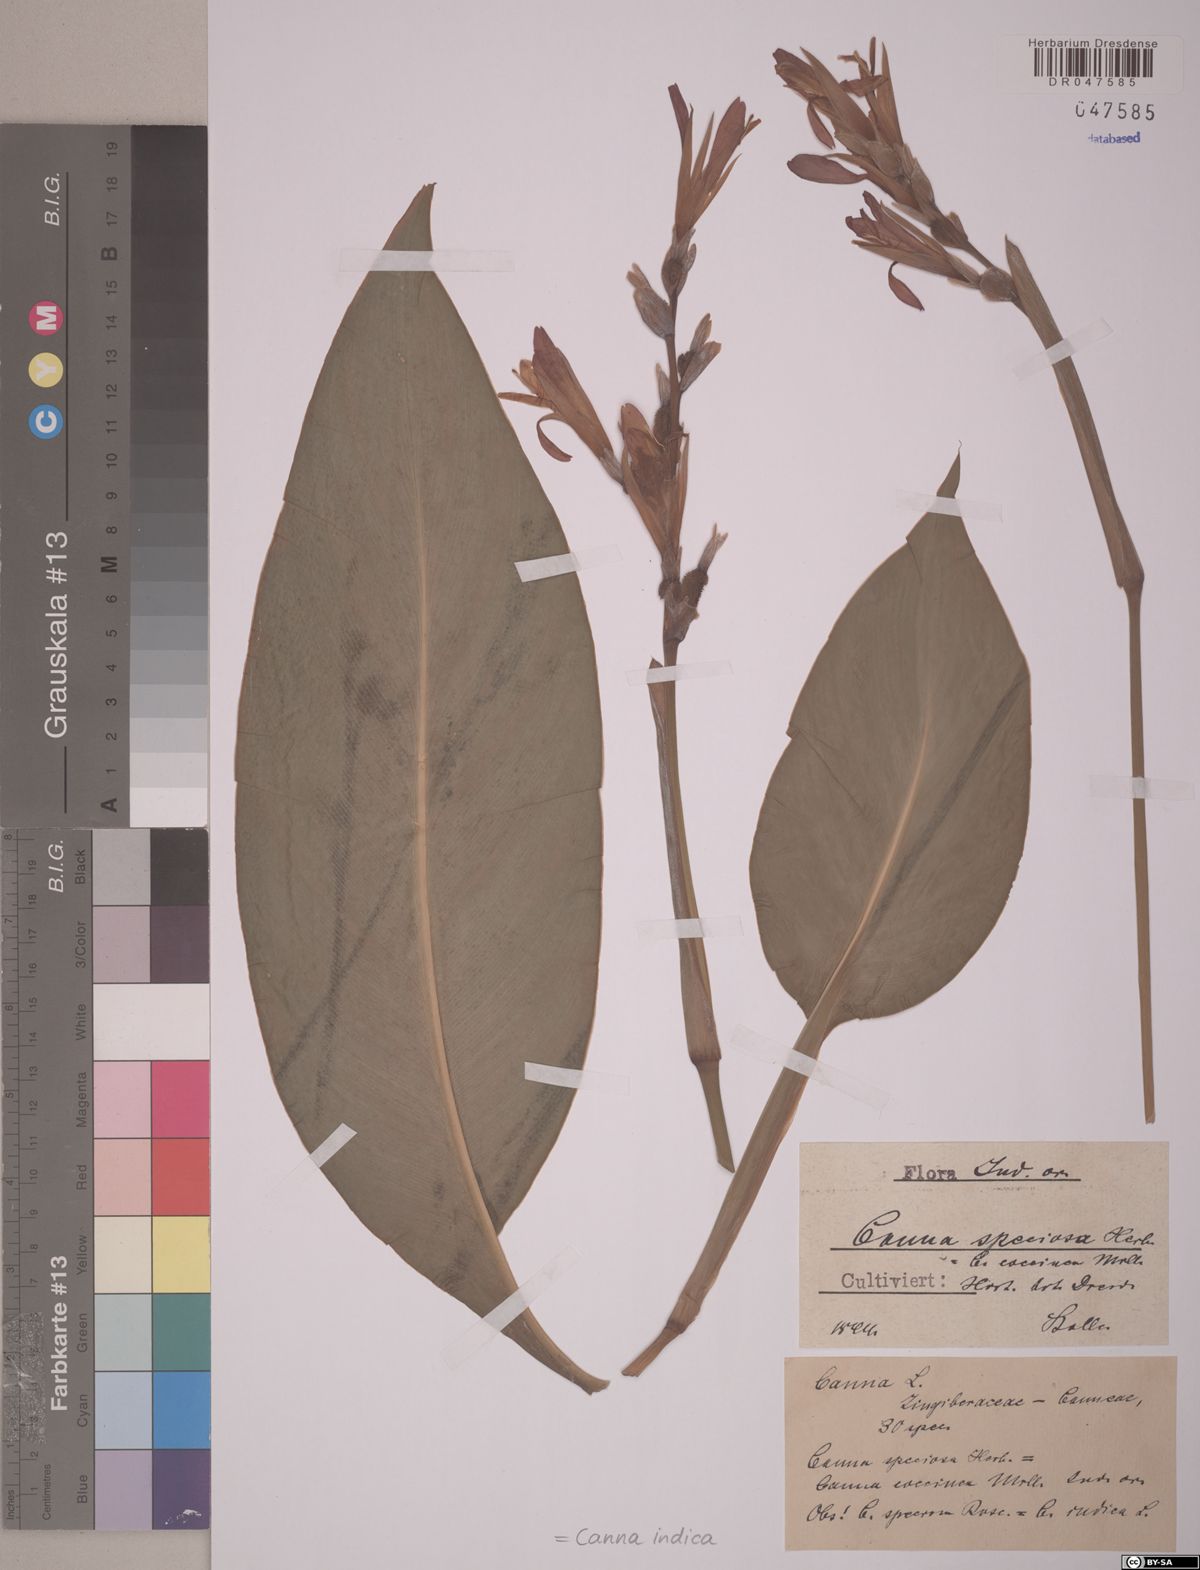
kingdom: Plantae
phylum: Tracheophyta
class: Liliopsida
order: Zingiberales
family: Cannaceae
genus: Canna
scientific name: Canna indica
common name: Indian shot
